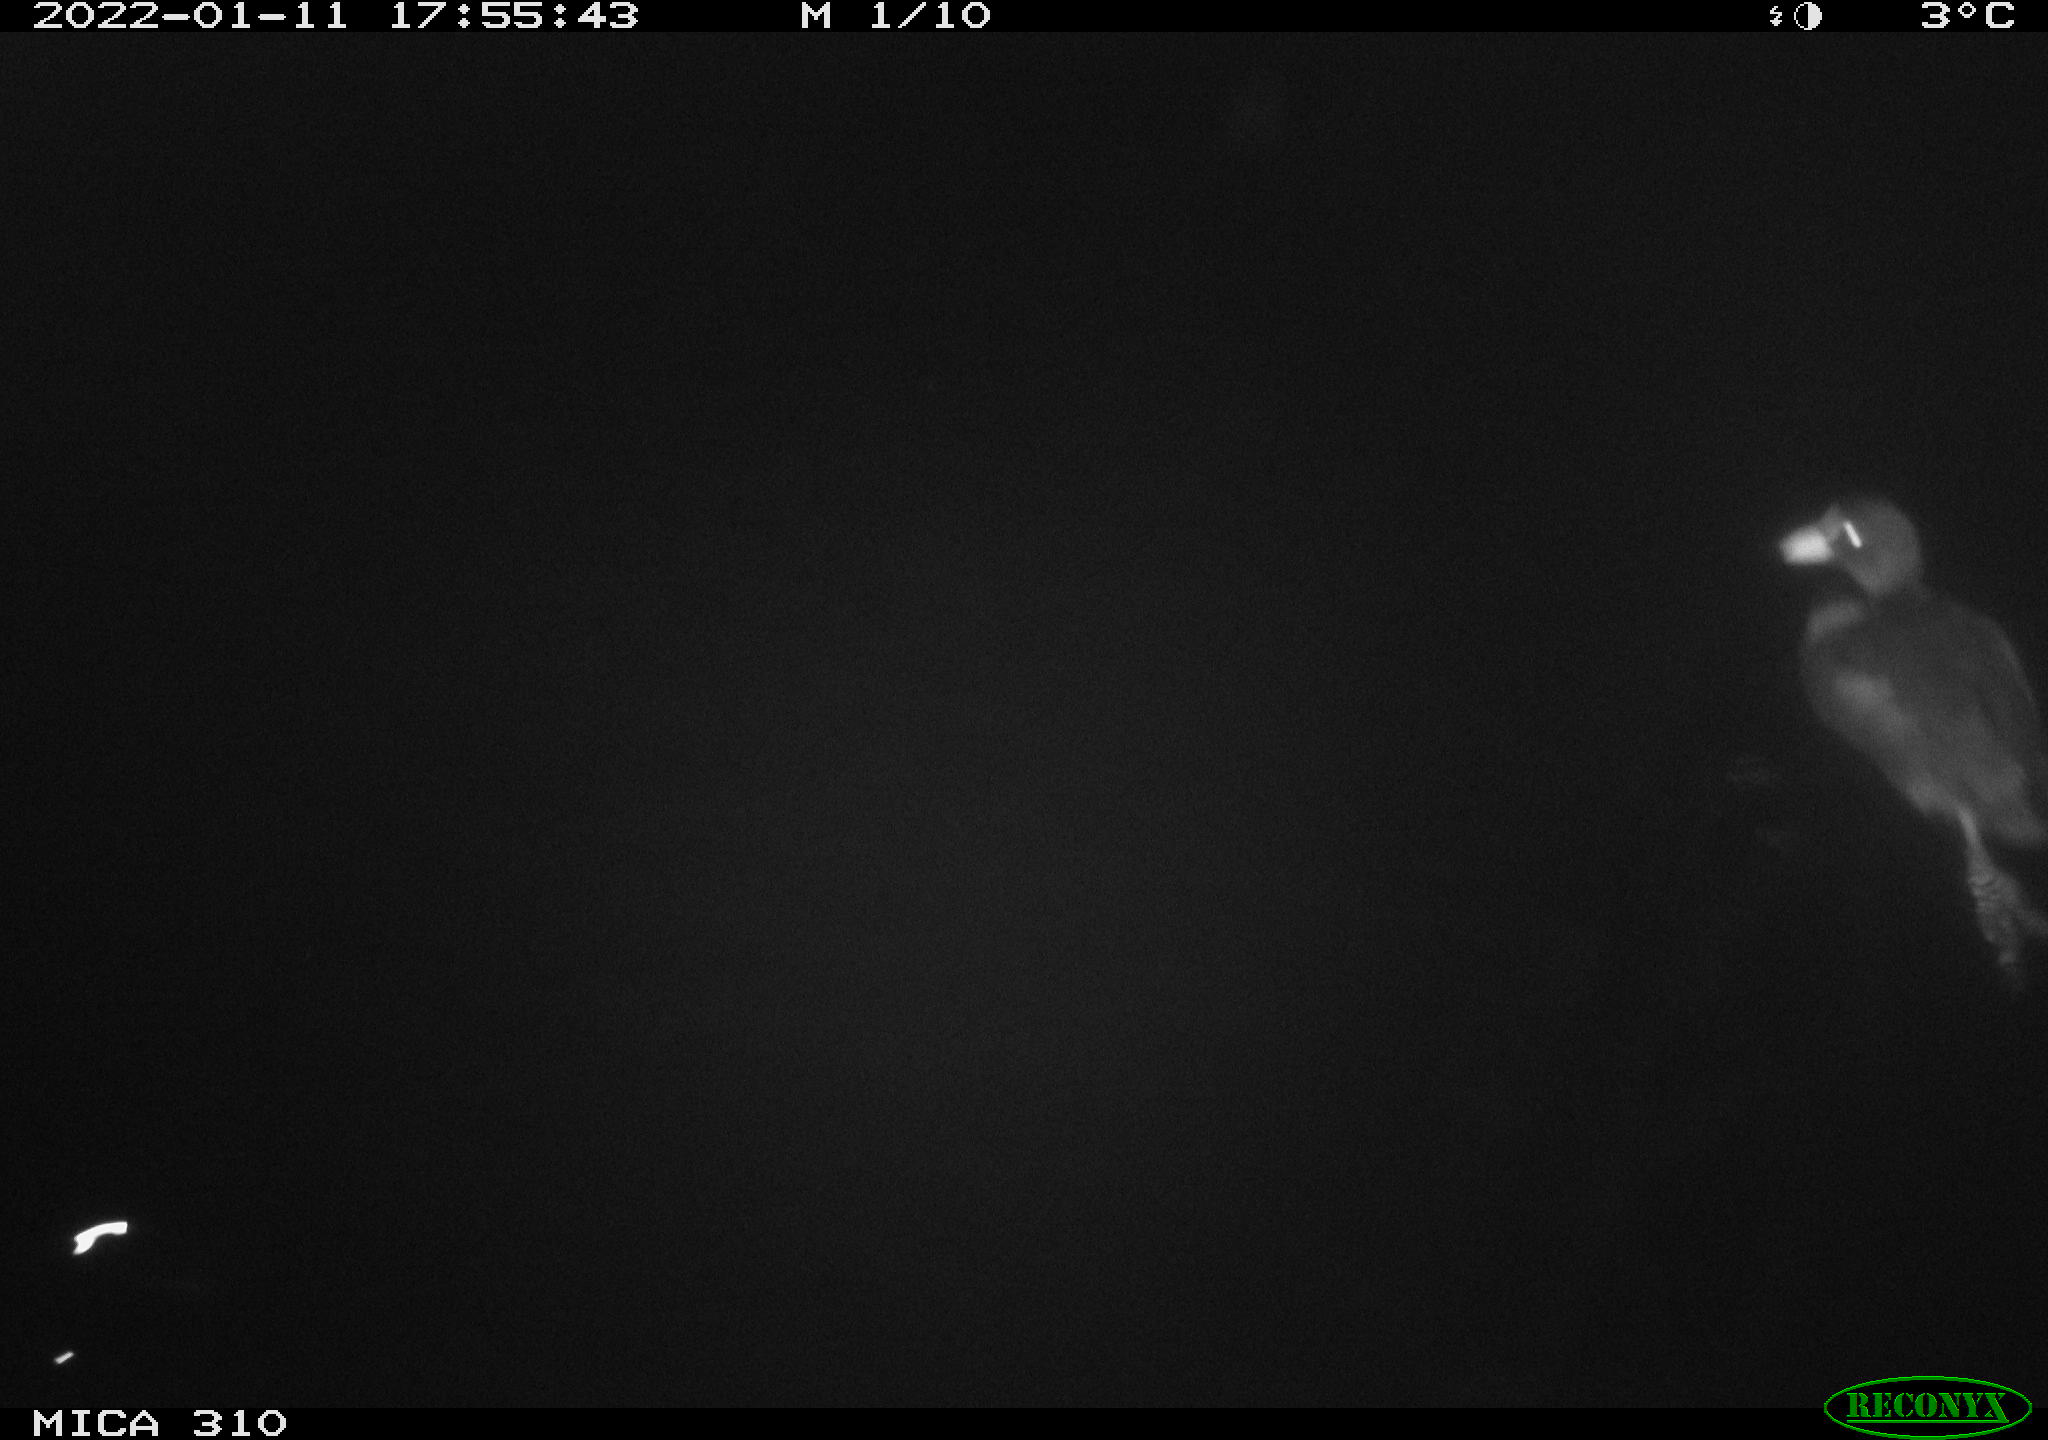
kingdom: Animalia
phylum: Chordata
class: Aves
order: Gruiformes
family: Rallidae
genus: Fulica
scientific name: Fulica atra
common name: Eurasian coot
